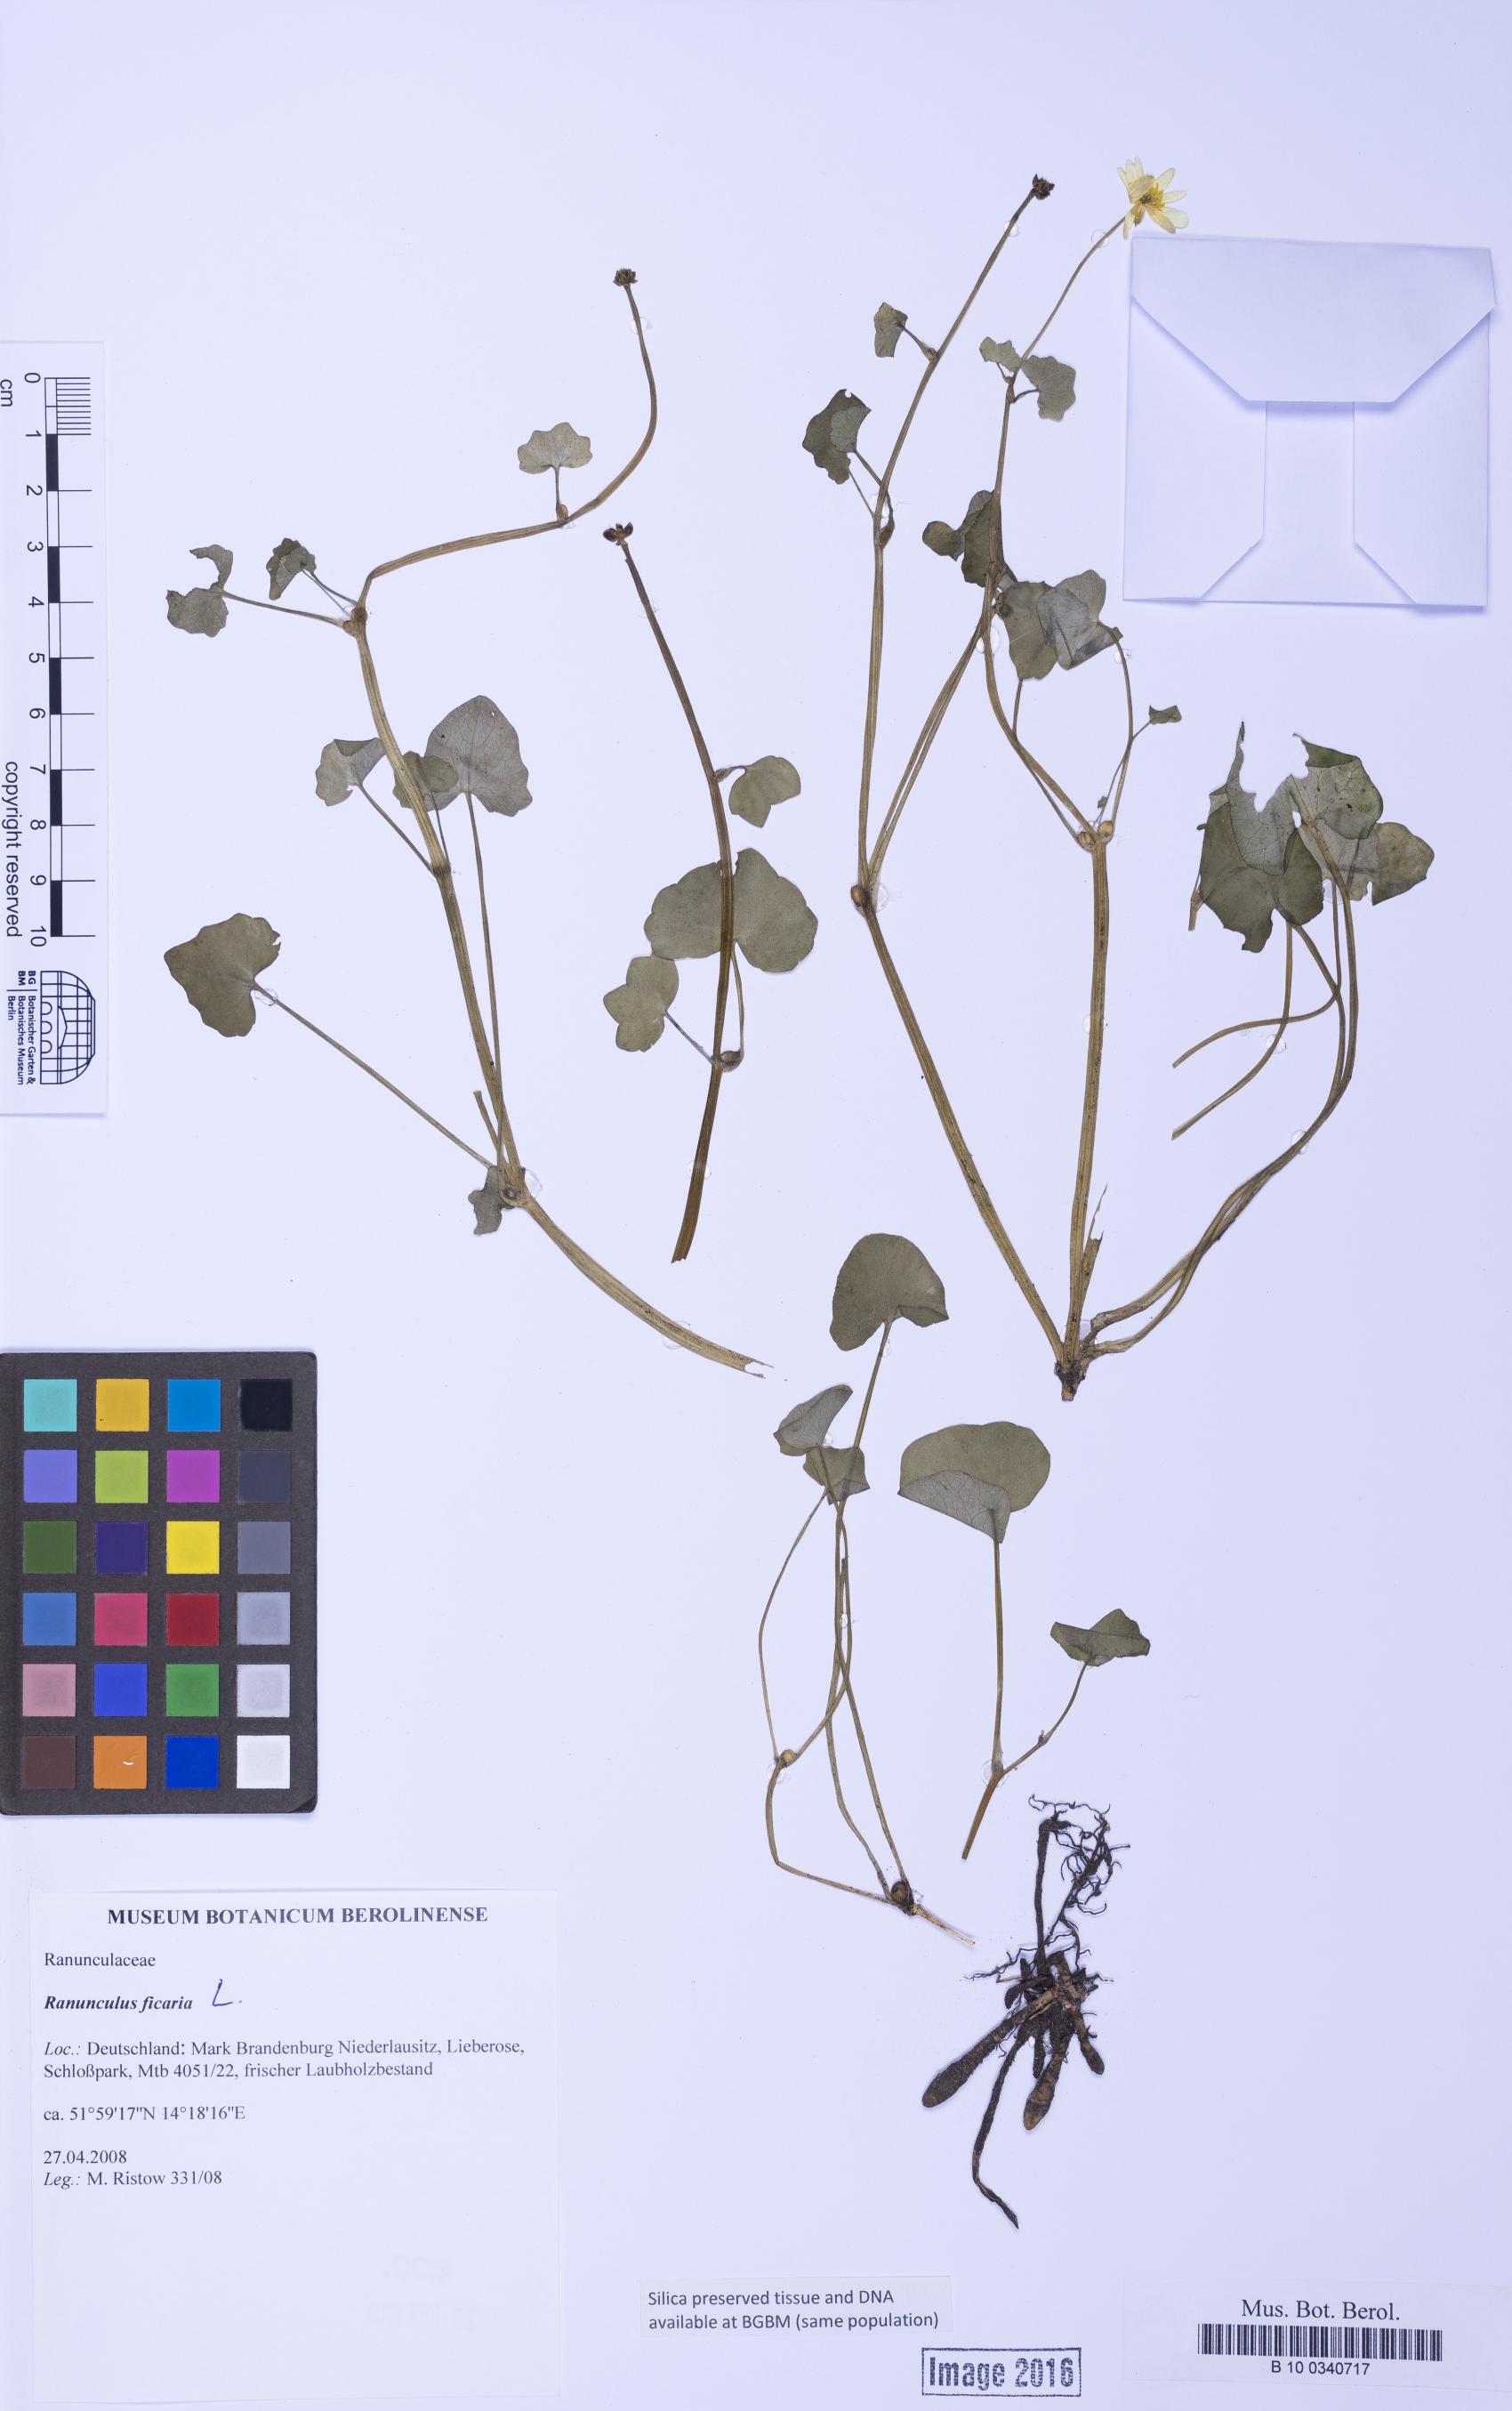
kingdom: Plantae
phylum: Tracheophyta
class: Magnoliopsida
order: Ranunculales
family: Ranunculaceae
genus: Ficaria
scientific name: Ficaria verna
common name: Lesser celandine
